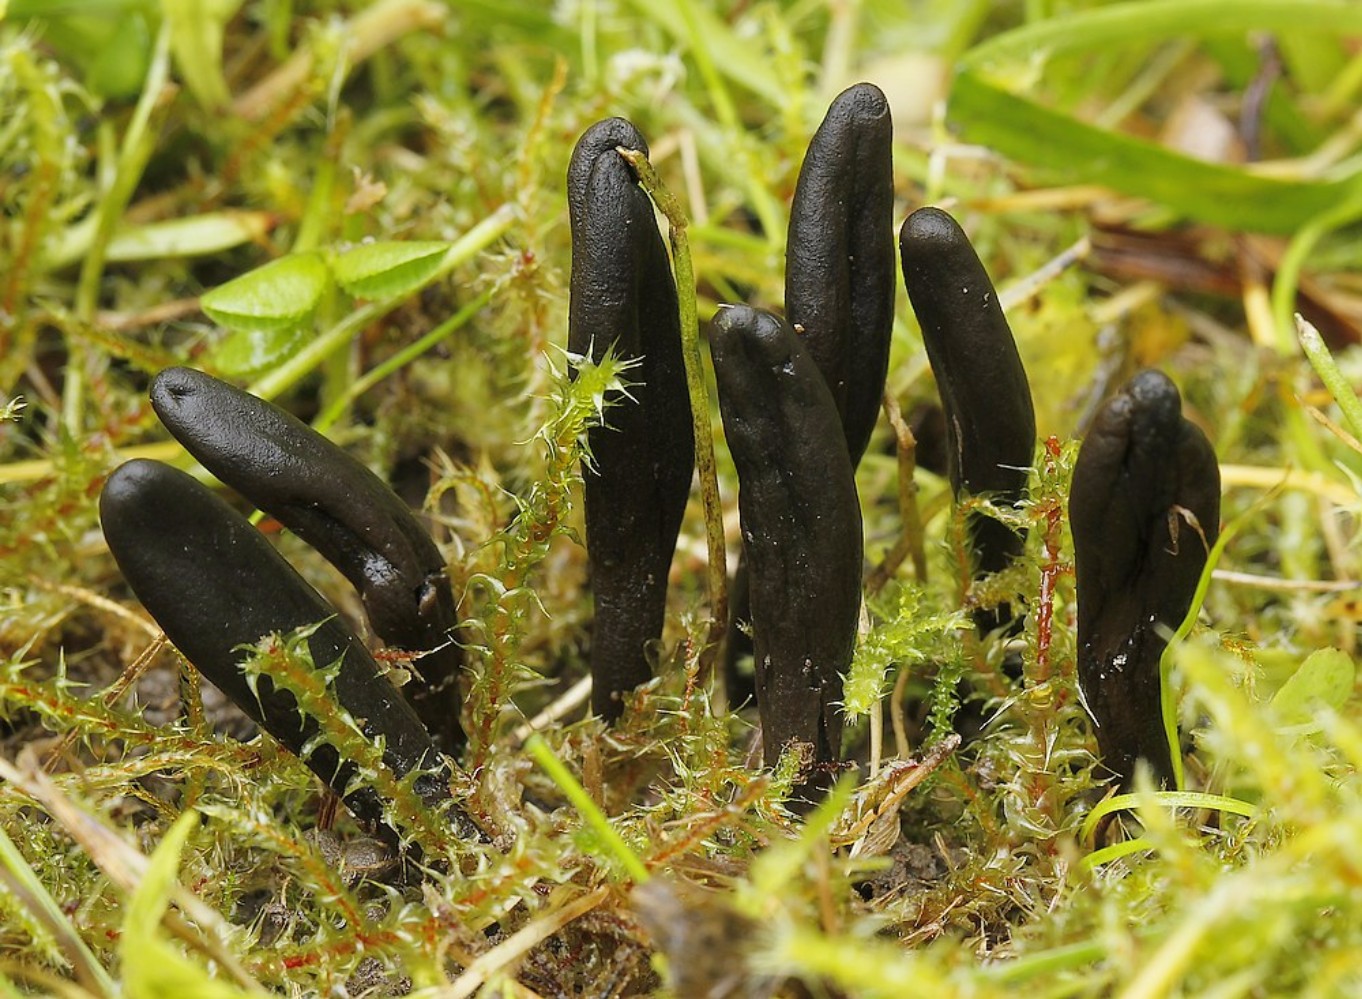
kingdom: Fungi
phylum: Ascomycota
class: Geoglossomycetes
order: Geoglossales
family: Geoglossaceae
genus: Geoglossum
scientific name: Geoglossum umbratile
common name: slank jordtunge
